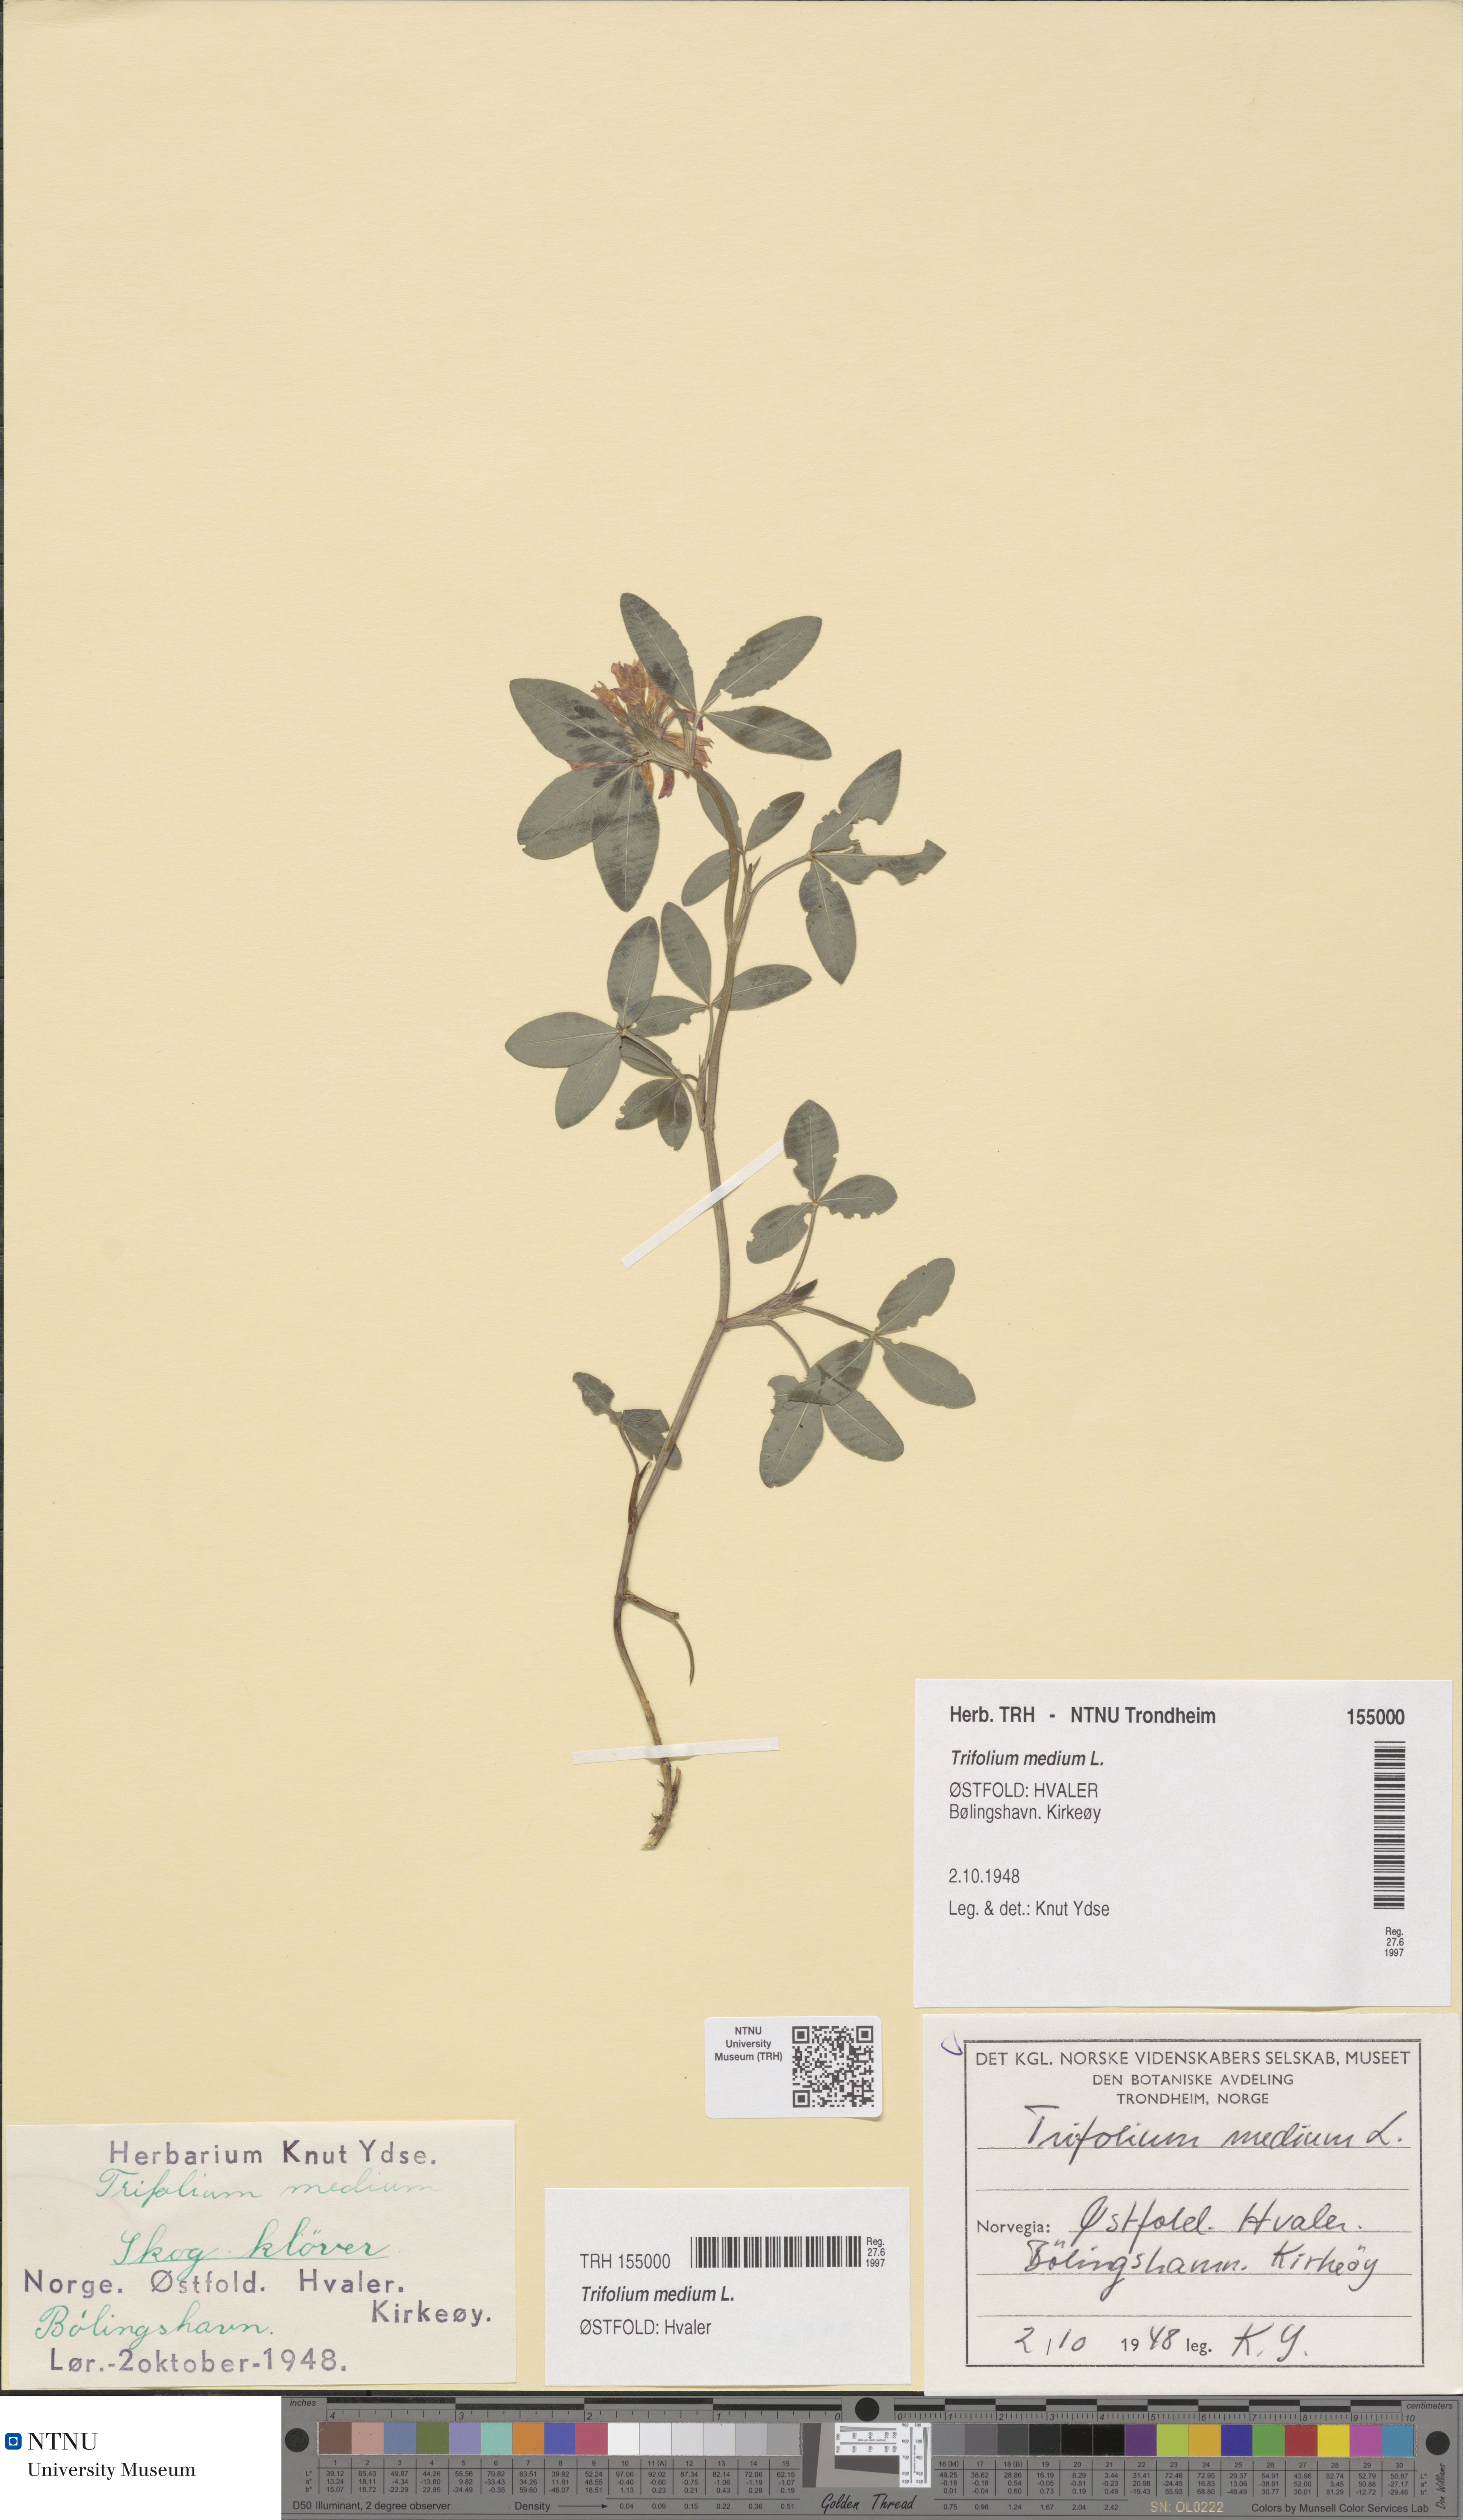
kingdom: Plantae
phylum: Tracheophyta
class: Magnoliopsida
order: Fabales
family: Fabaceae
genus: Trifolium
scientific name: Trifolium medium
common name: Zigzag clover
